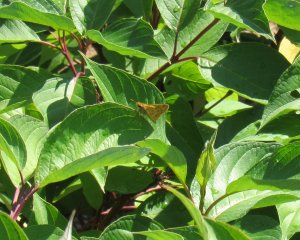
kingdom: Animalia
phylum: Arthropoda
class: Insecta
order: Lepidoptera
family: Hesperiidae
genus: Hylephila
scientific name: Hylephila phyleus
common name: Fiery Skipper
